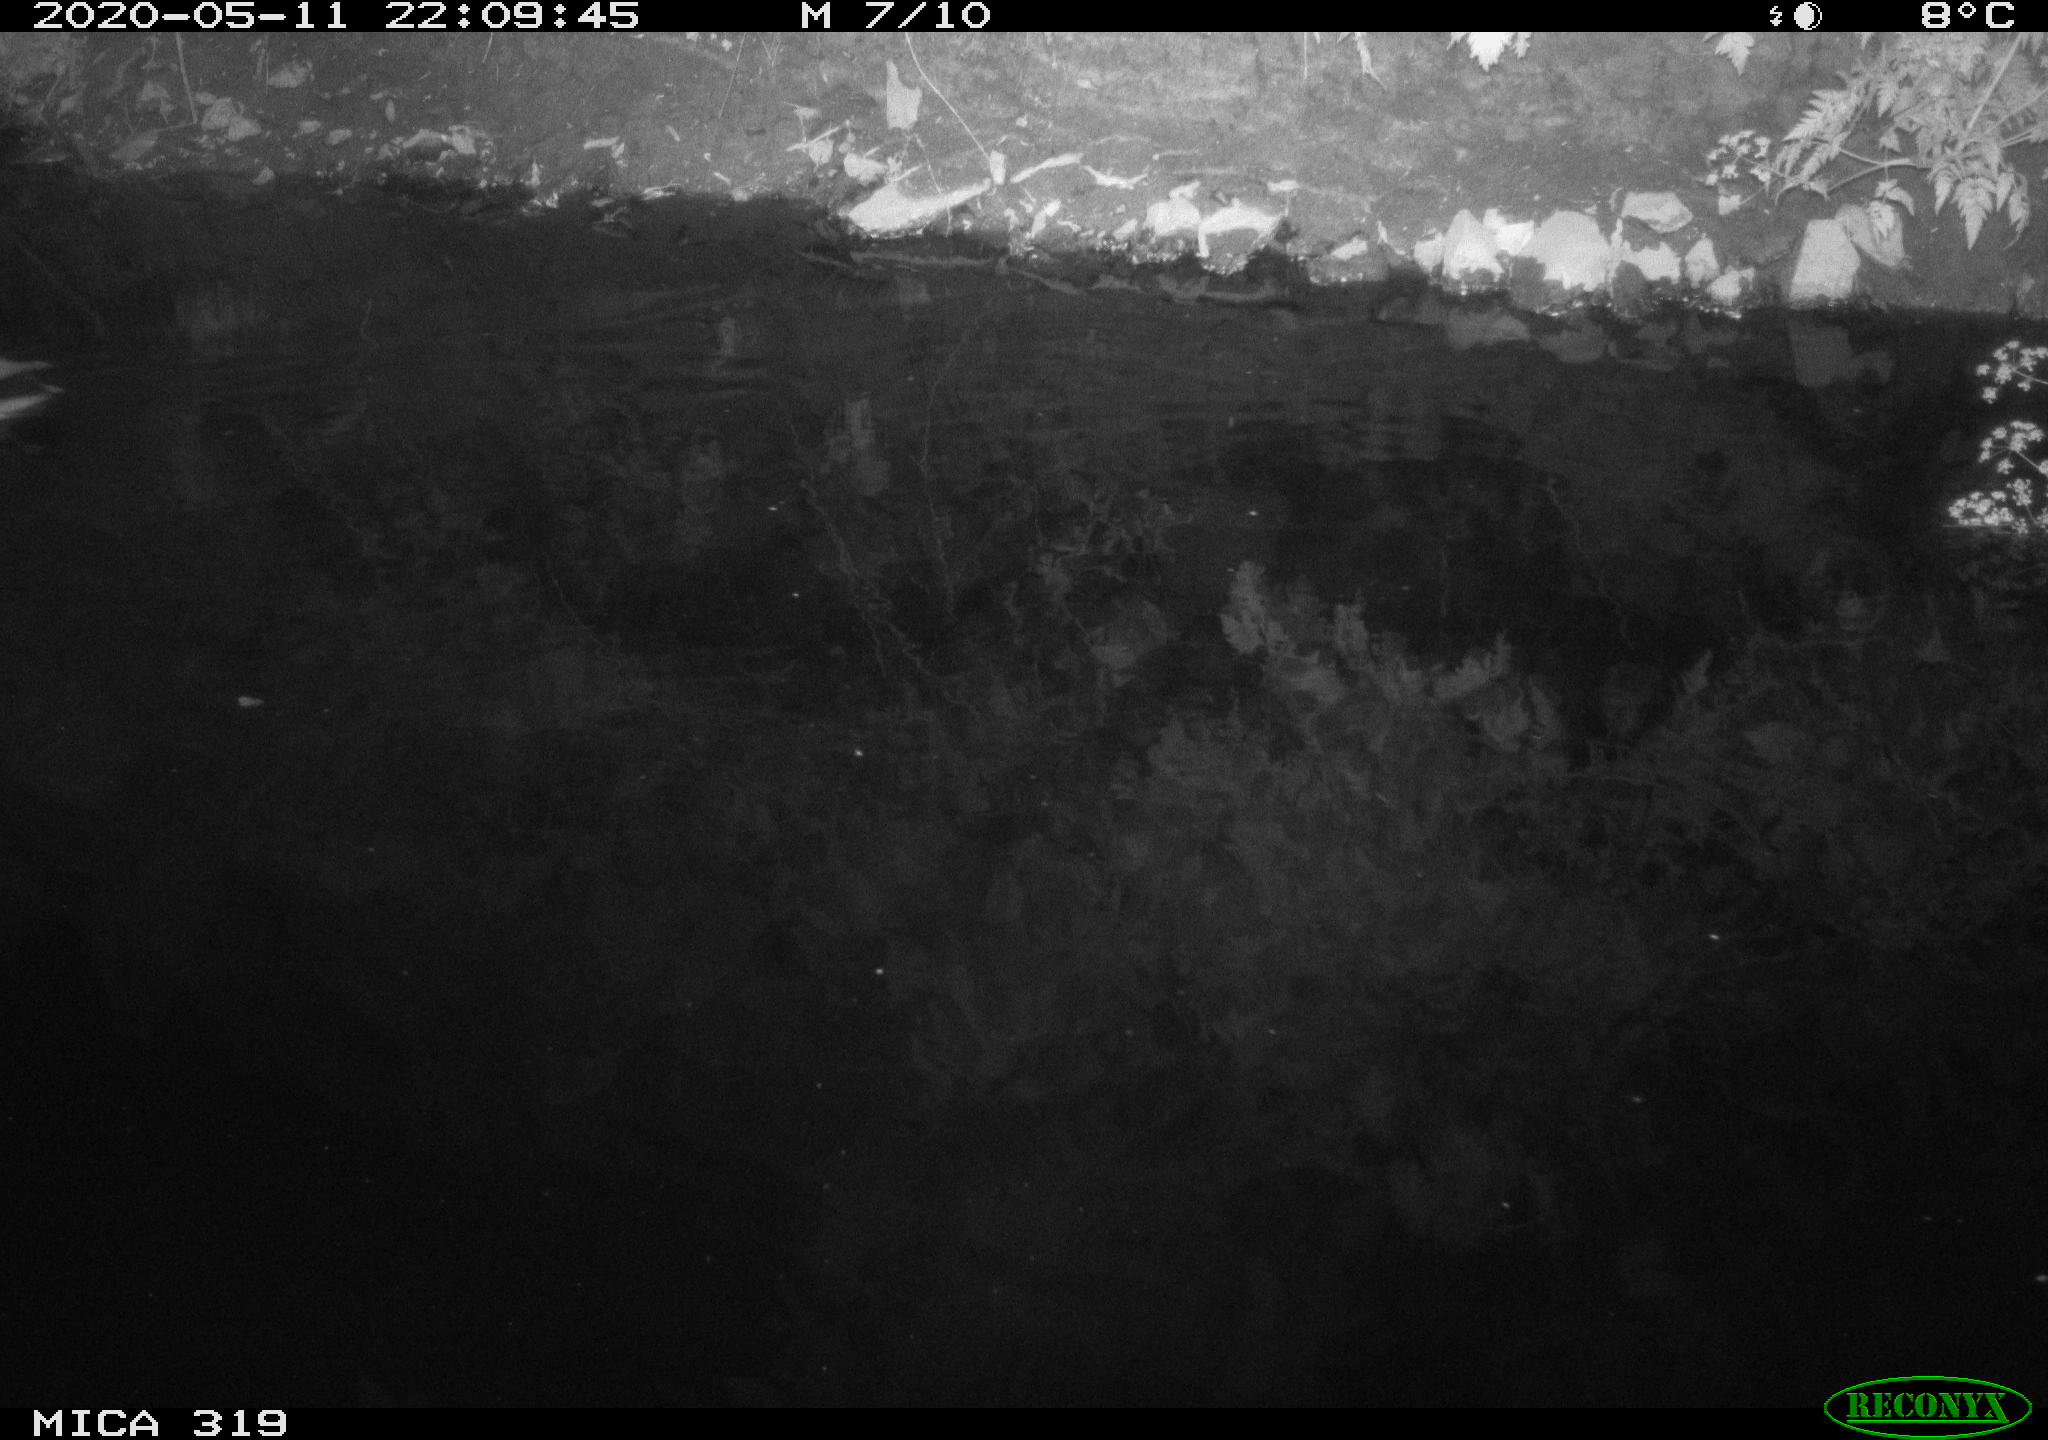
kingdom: Animalia
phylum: Chordata
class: Aves
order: Anseriformes
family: Anatidae
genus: Anas
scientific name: Anas platyrhynchos
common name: Mallard
